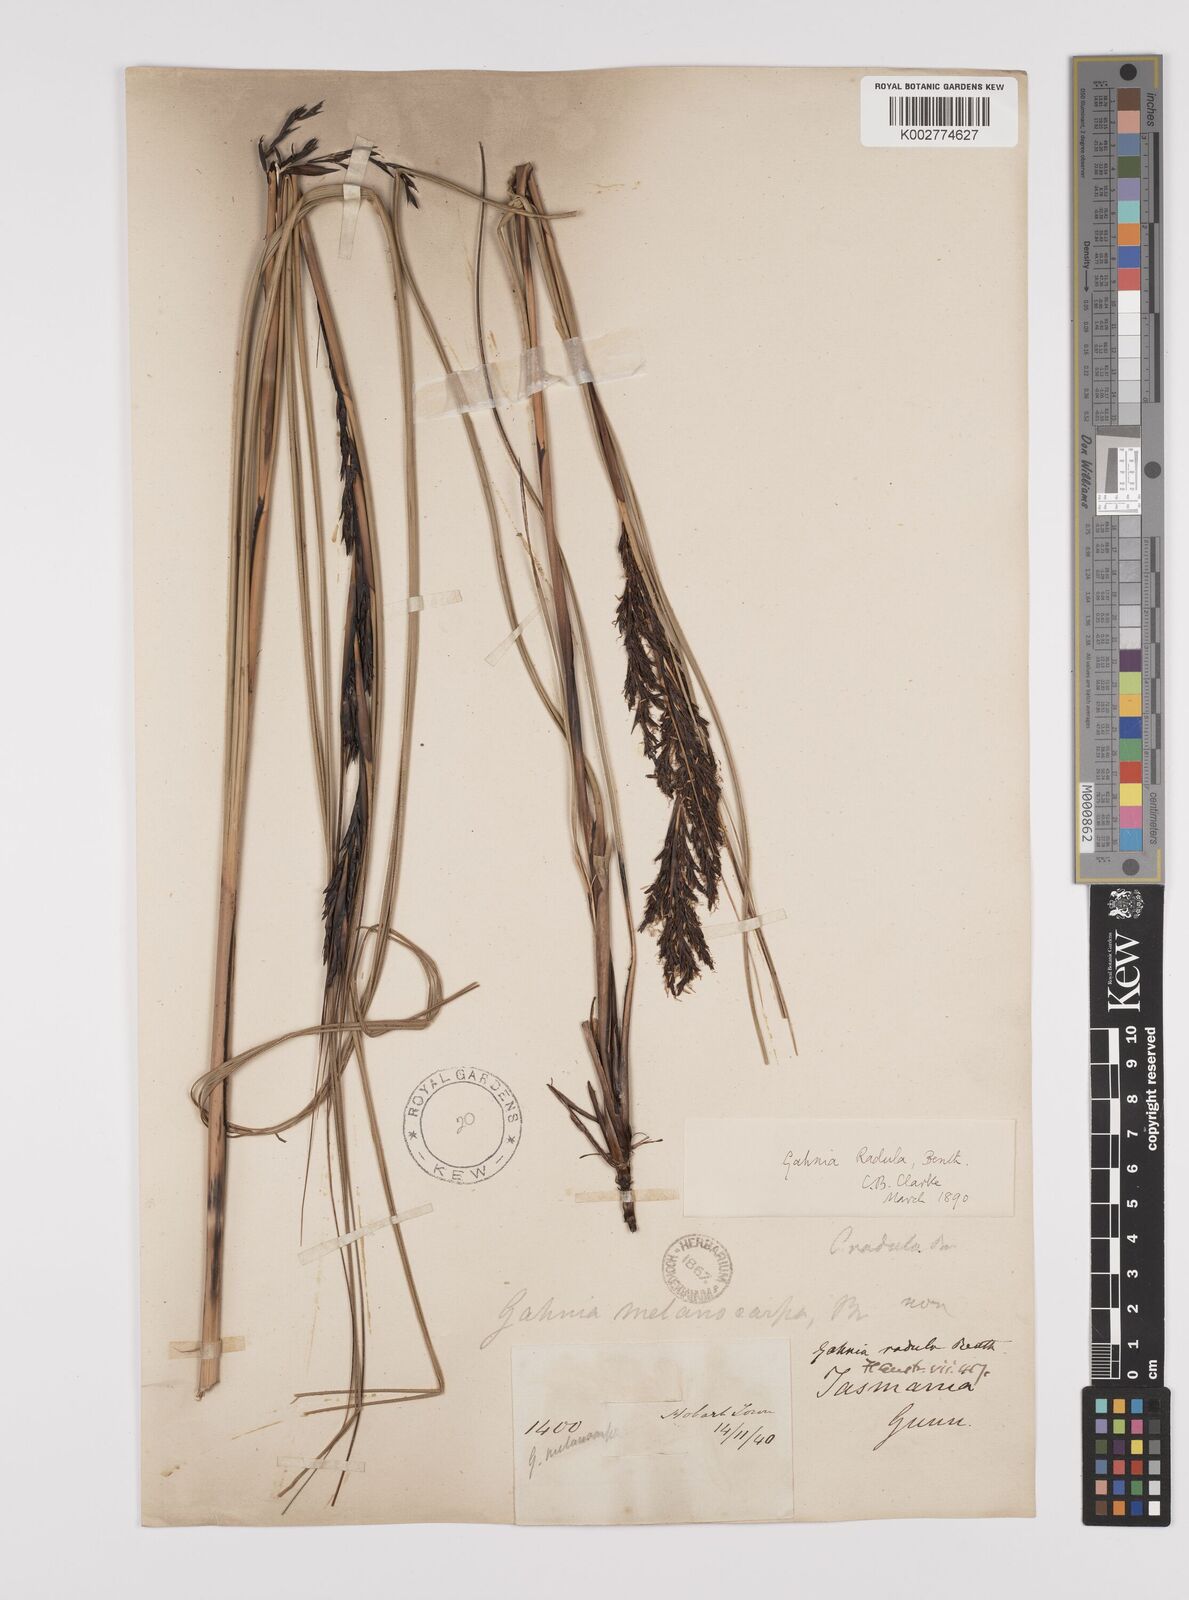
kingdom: Plantae
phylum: Tracheophyta
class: Liliopsida
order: Poales
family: Cyperaceae
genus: Gahnia
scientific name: Gahnia radula
